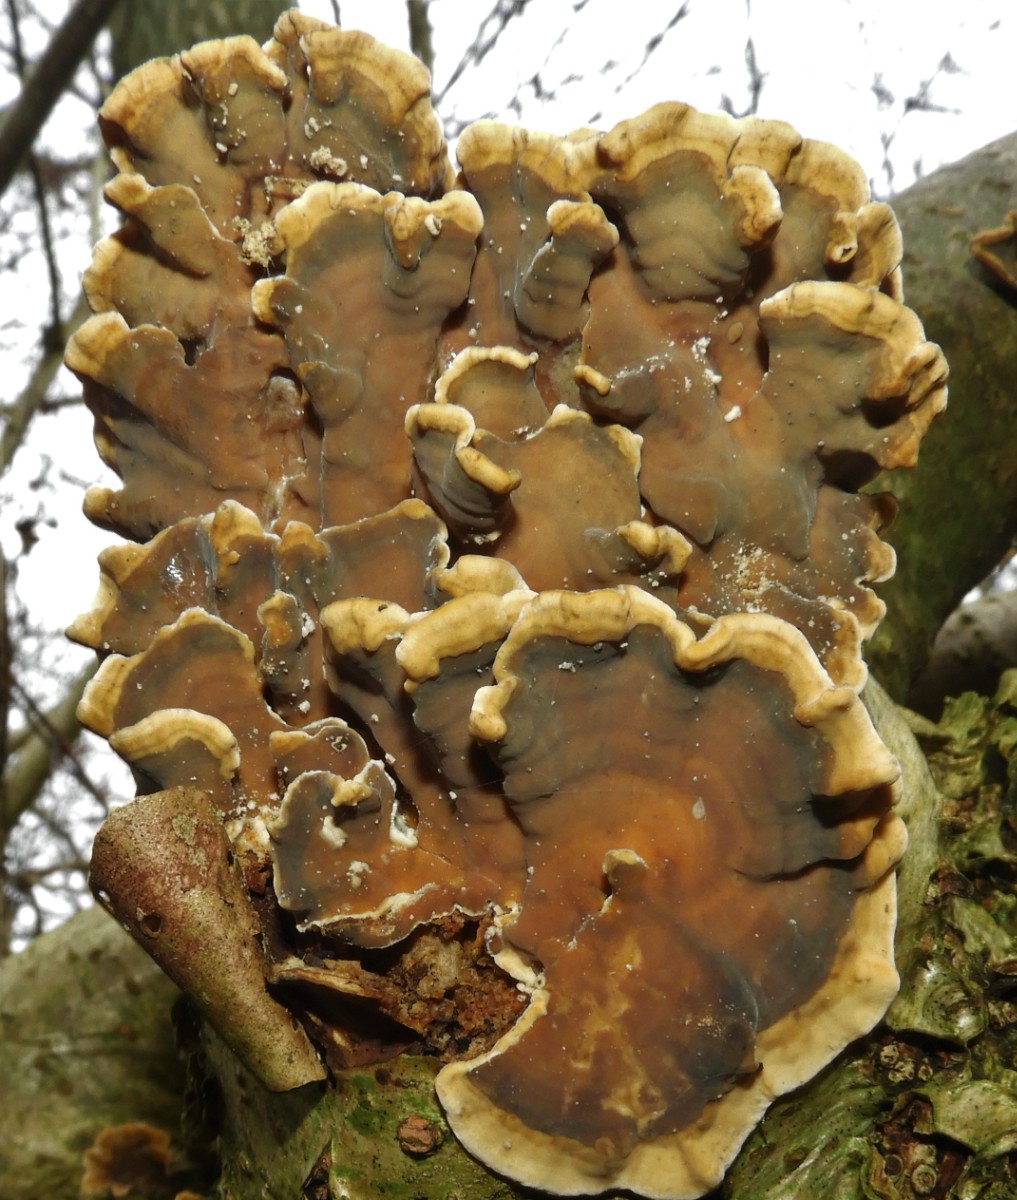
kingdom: Fungi
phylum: Basidiomycota
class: Agaricomycetes
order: Russulales
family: Stereaceae
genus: Stereum
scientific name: Stereum subtomentosum
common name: smuk lædersvamp
